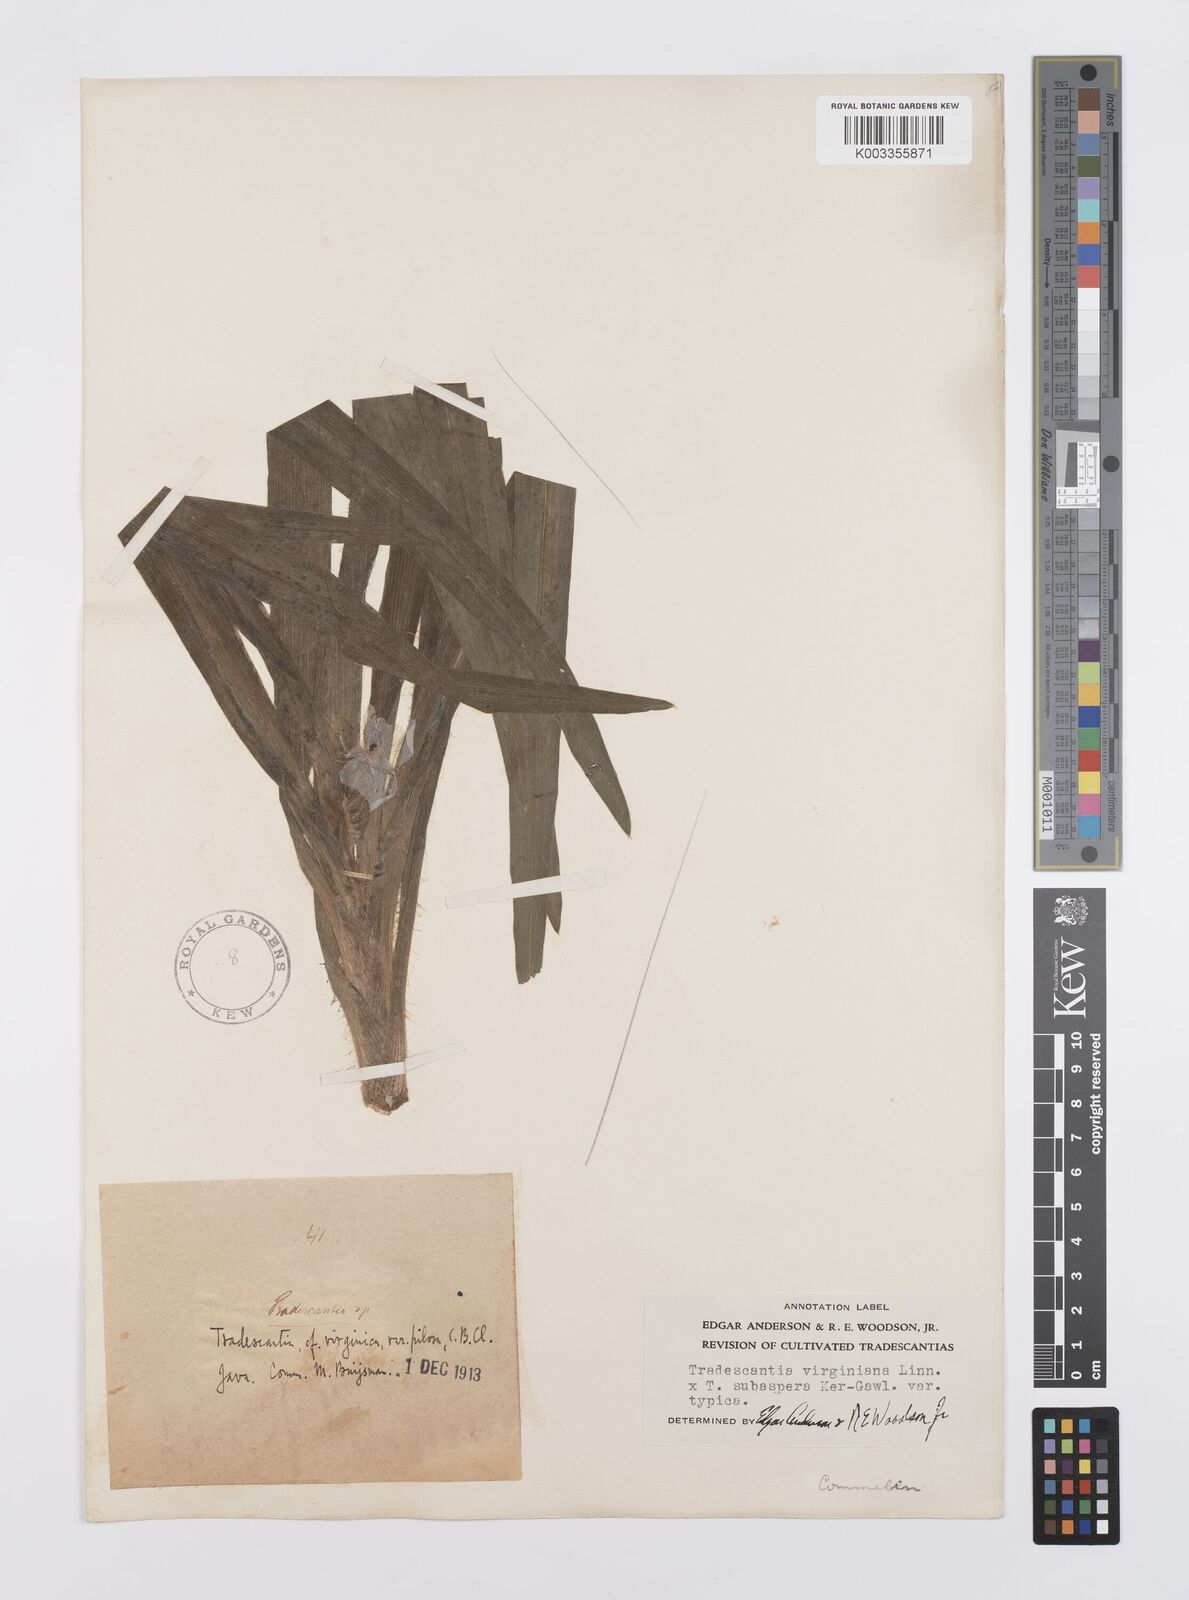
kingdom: Plantae
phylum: Tracheophyta
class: Liliopsida
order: Commelinales
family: Commelinaceae
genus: Tradescantia
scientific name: Tradescantia virginiana
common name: Spiderwort
